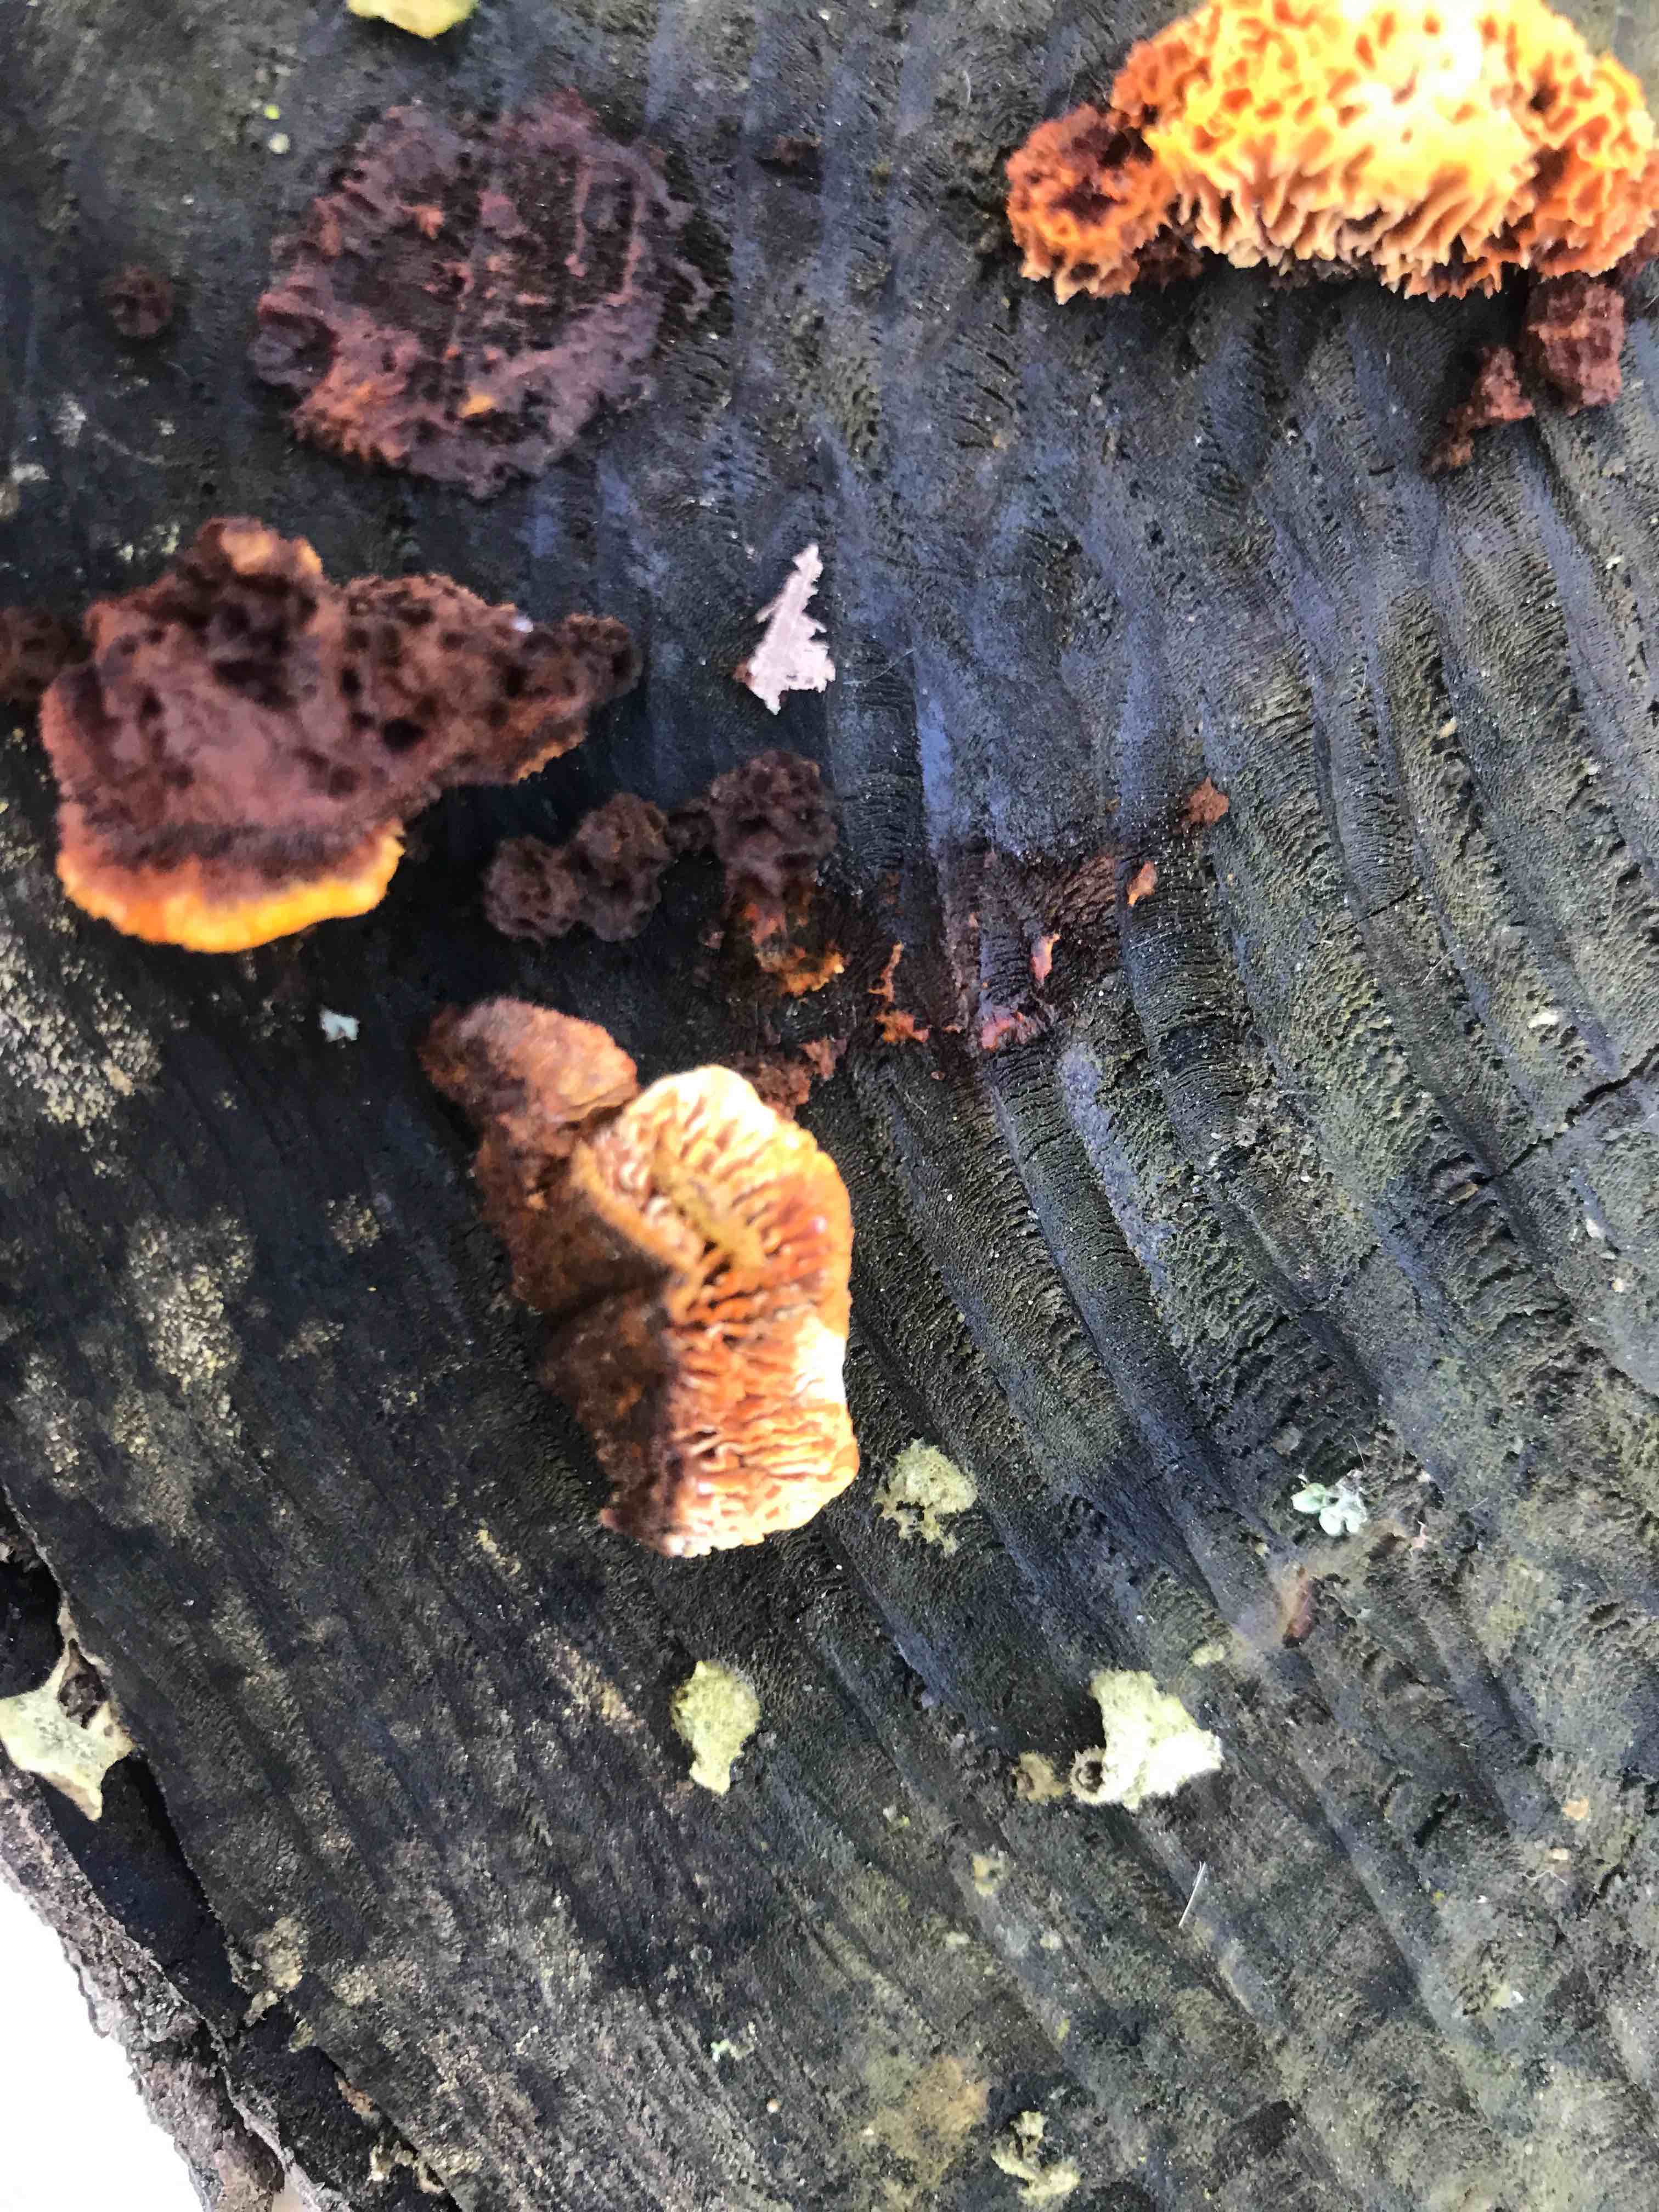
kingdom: Fungi
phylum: Basidiomycota
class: Agaricomycetes
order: Gloeophyllales
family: Gloeophyllaceae
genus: Gloeophyllum
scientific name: Gloeophyllum sepiarium
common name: fyrre-korkhat
